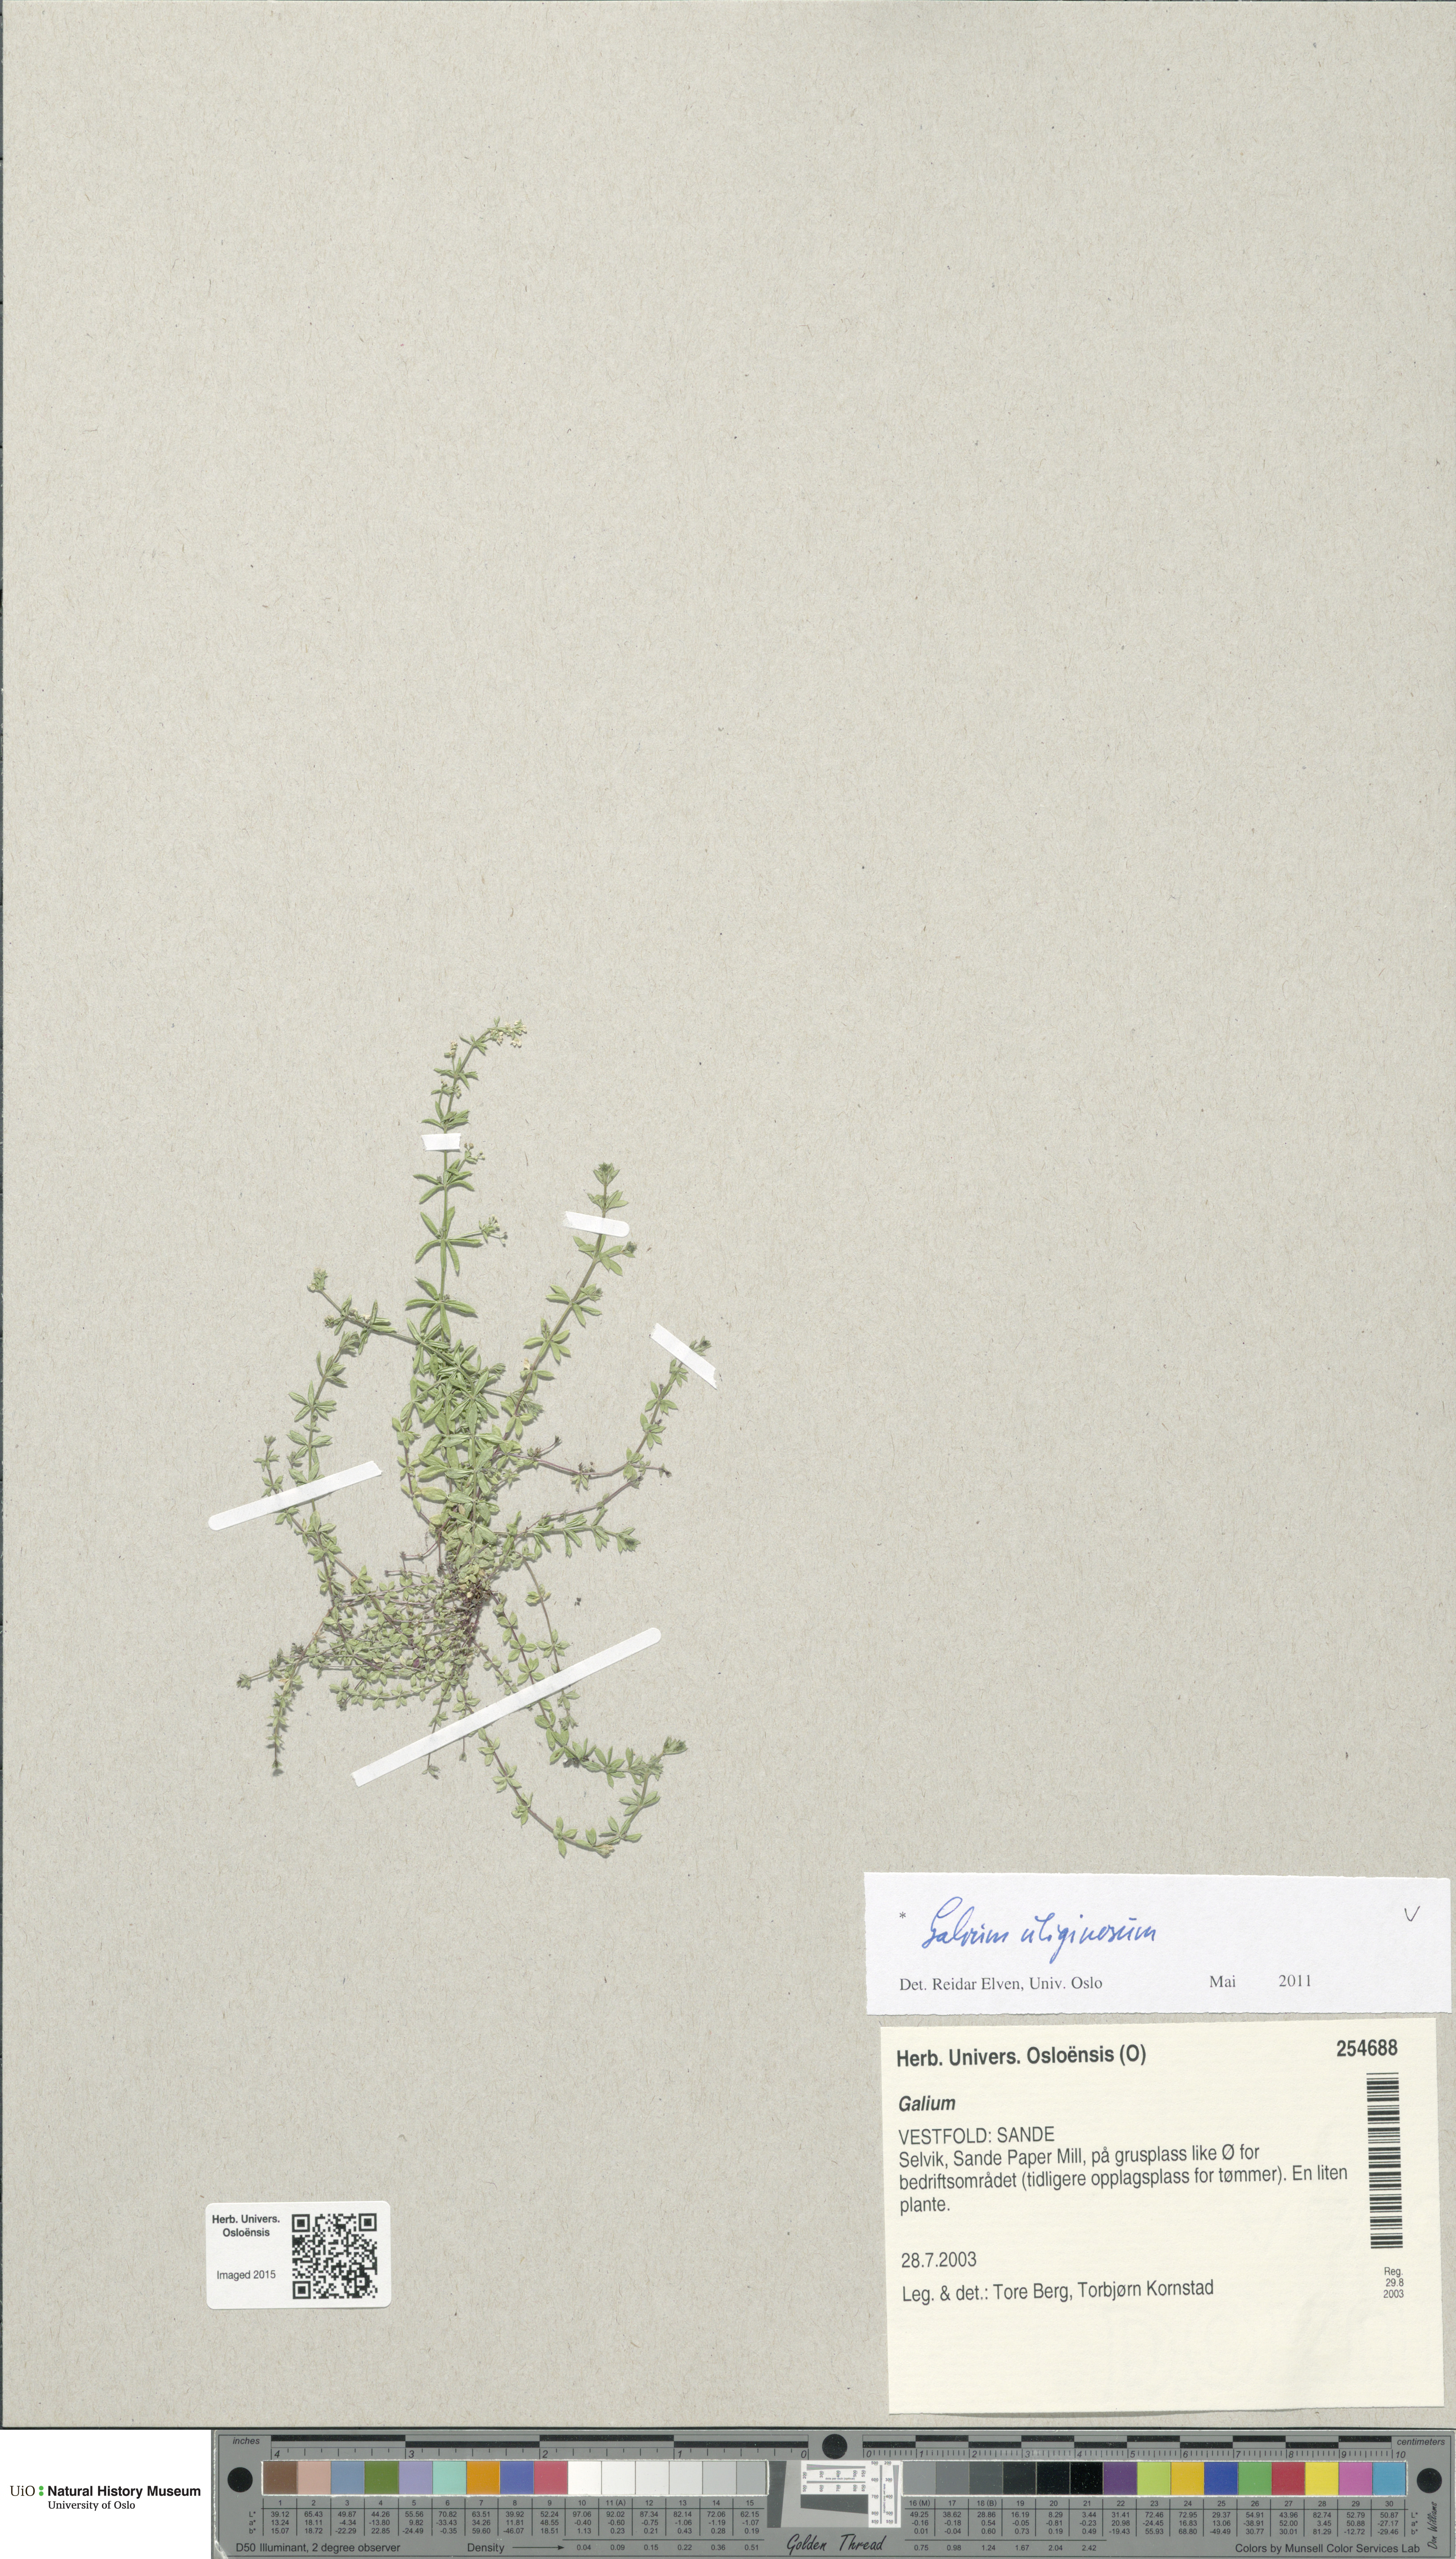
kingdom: Plantae
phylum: Tracheophyta
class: Magnoliopsida
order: Gentianales
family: Rubiaceae
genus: Galium
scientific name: Galium uliginosum
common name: Fen bedstraw
